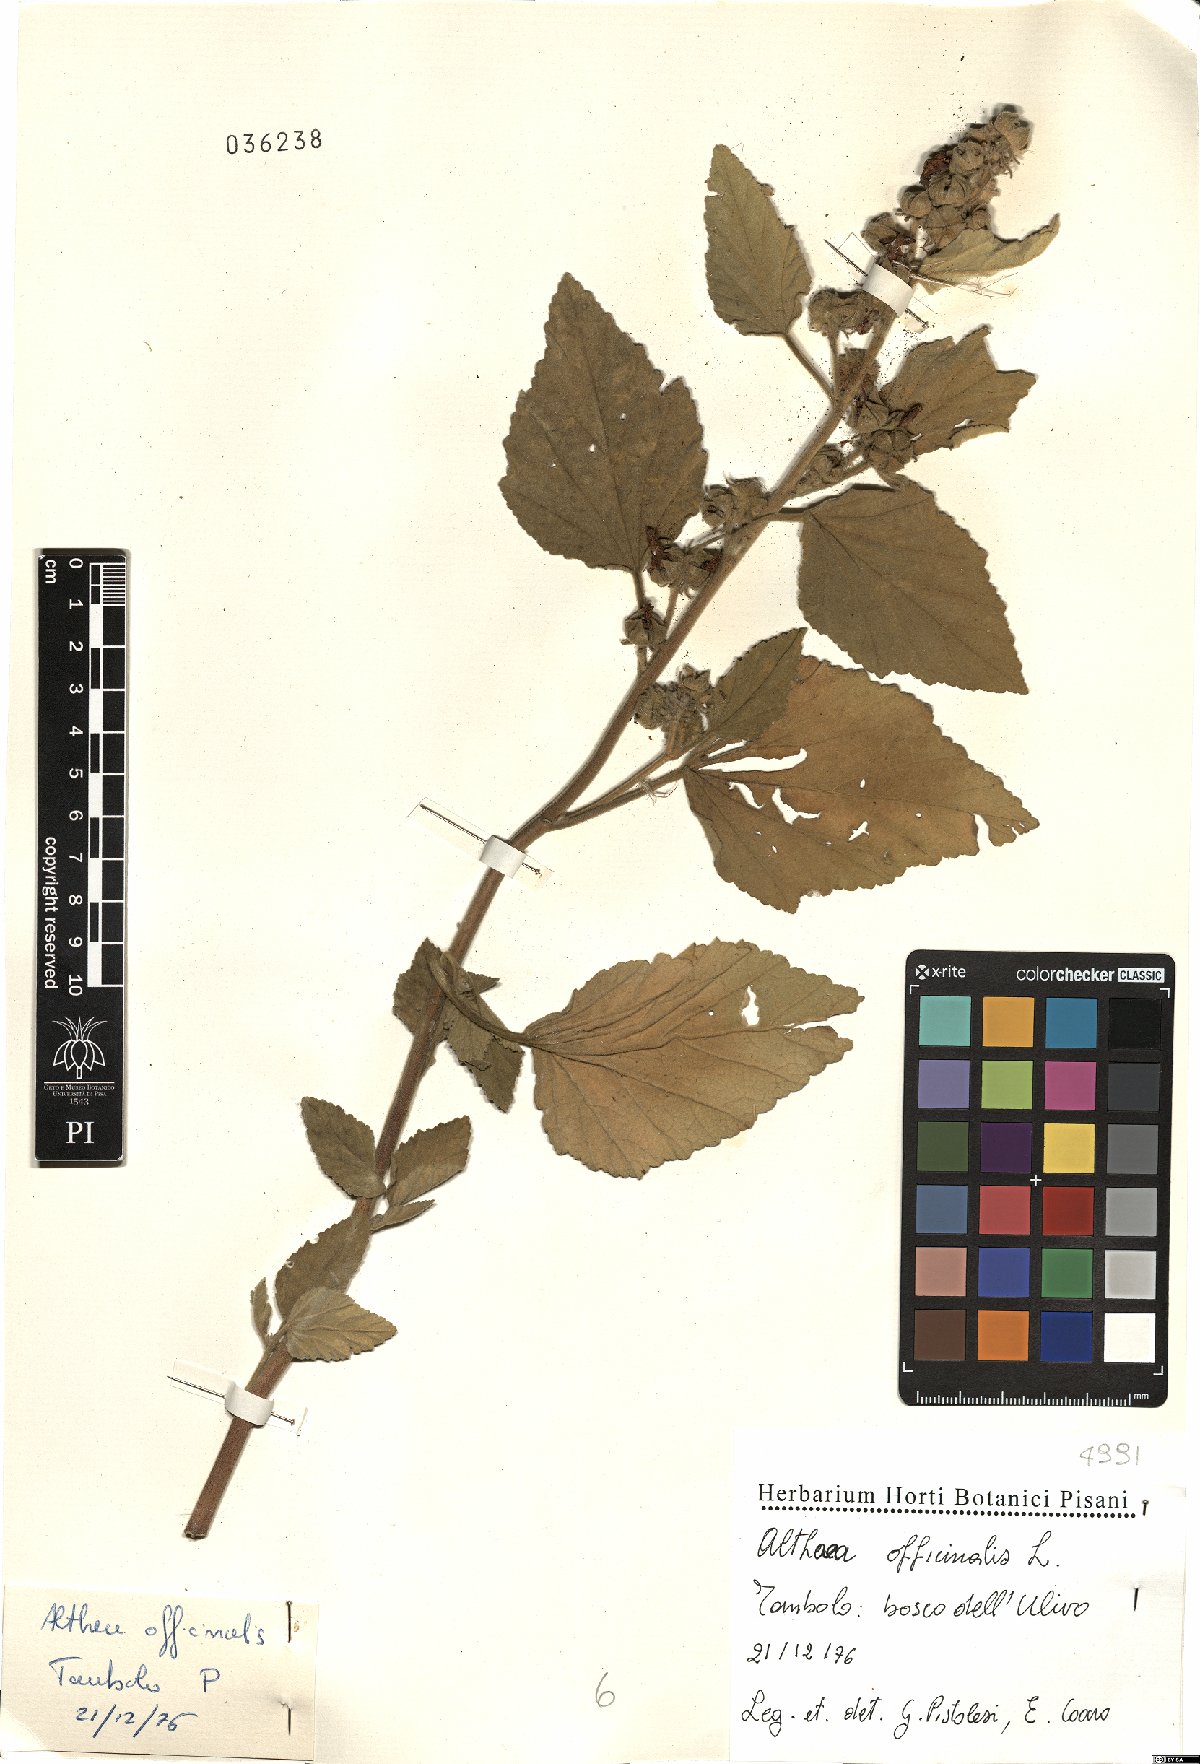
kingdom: Plantae
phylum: Tracheophyta
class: Magnoliopsida
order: Malvales
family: Malvaceae
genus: Althaea
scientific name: Althaea officinalis
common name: Marsh-mallow
